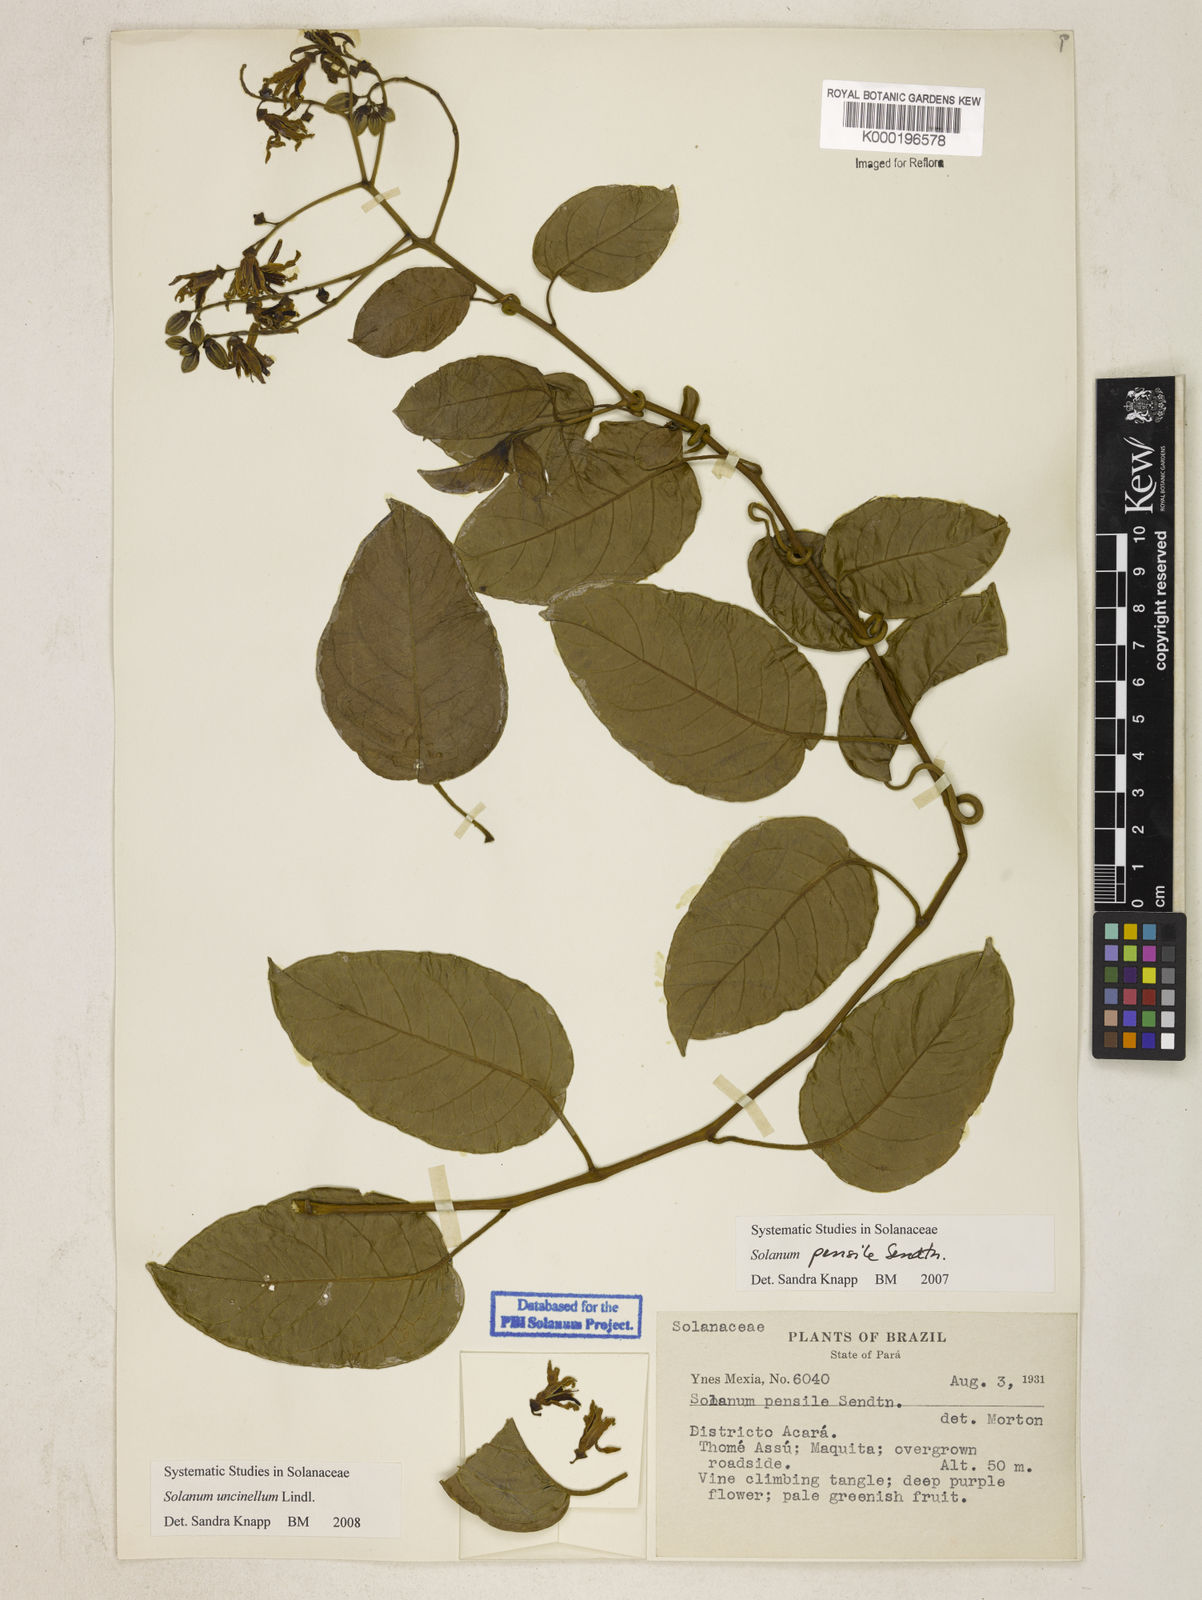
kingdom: Plantae
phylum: Tracheophyta
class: Magnoliopsida
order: Solanales
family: Solanaceae
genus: Solanum
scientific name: Solanum uncinellum
